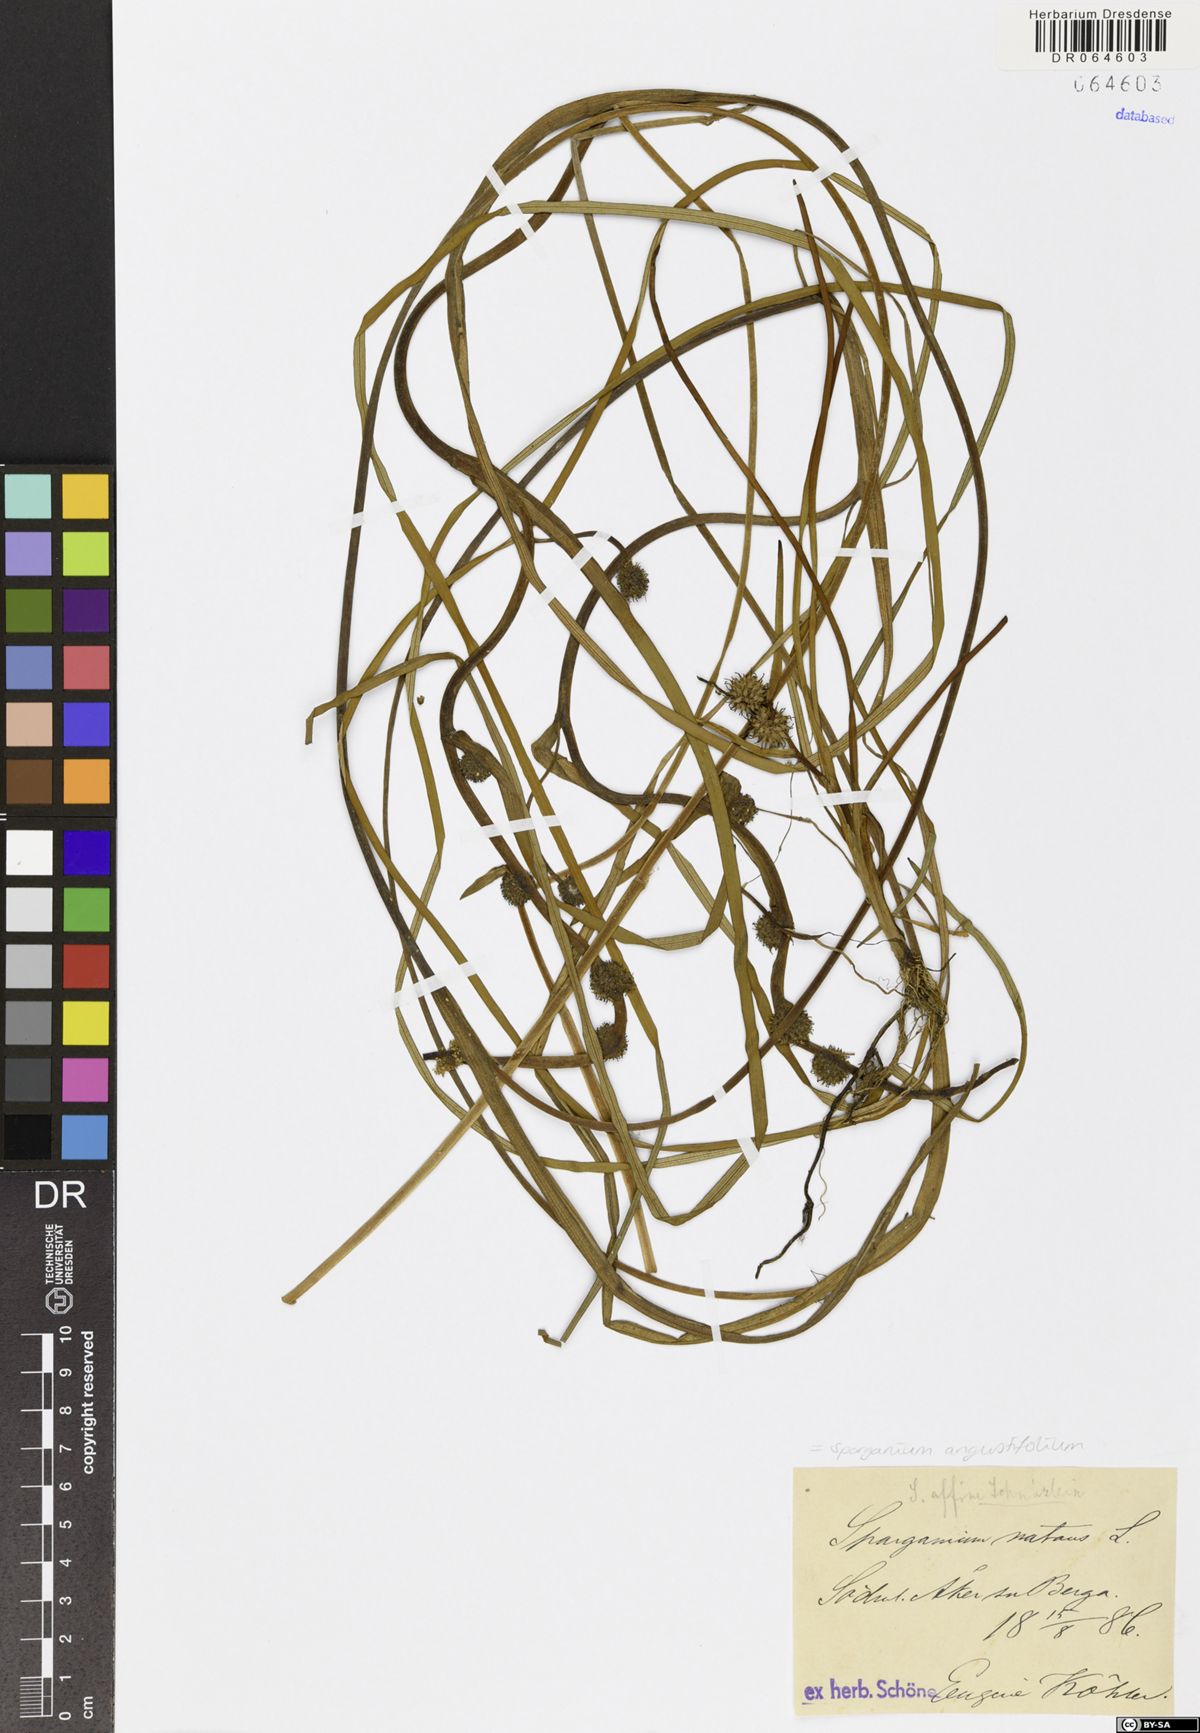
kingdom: Plantae
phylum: Tracheophyta
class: Liliopsida
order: Poales
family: Typhaceae
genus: Sparganium
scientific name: Sparganium angustifolium
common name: Floating bur-reed
